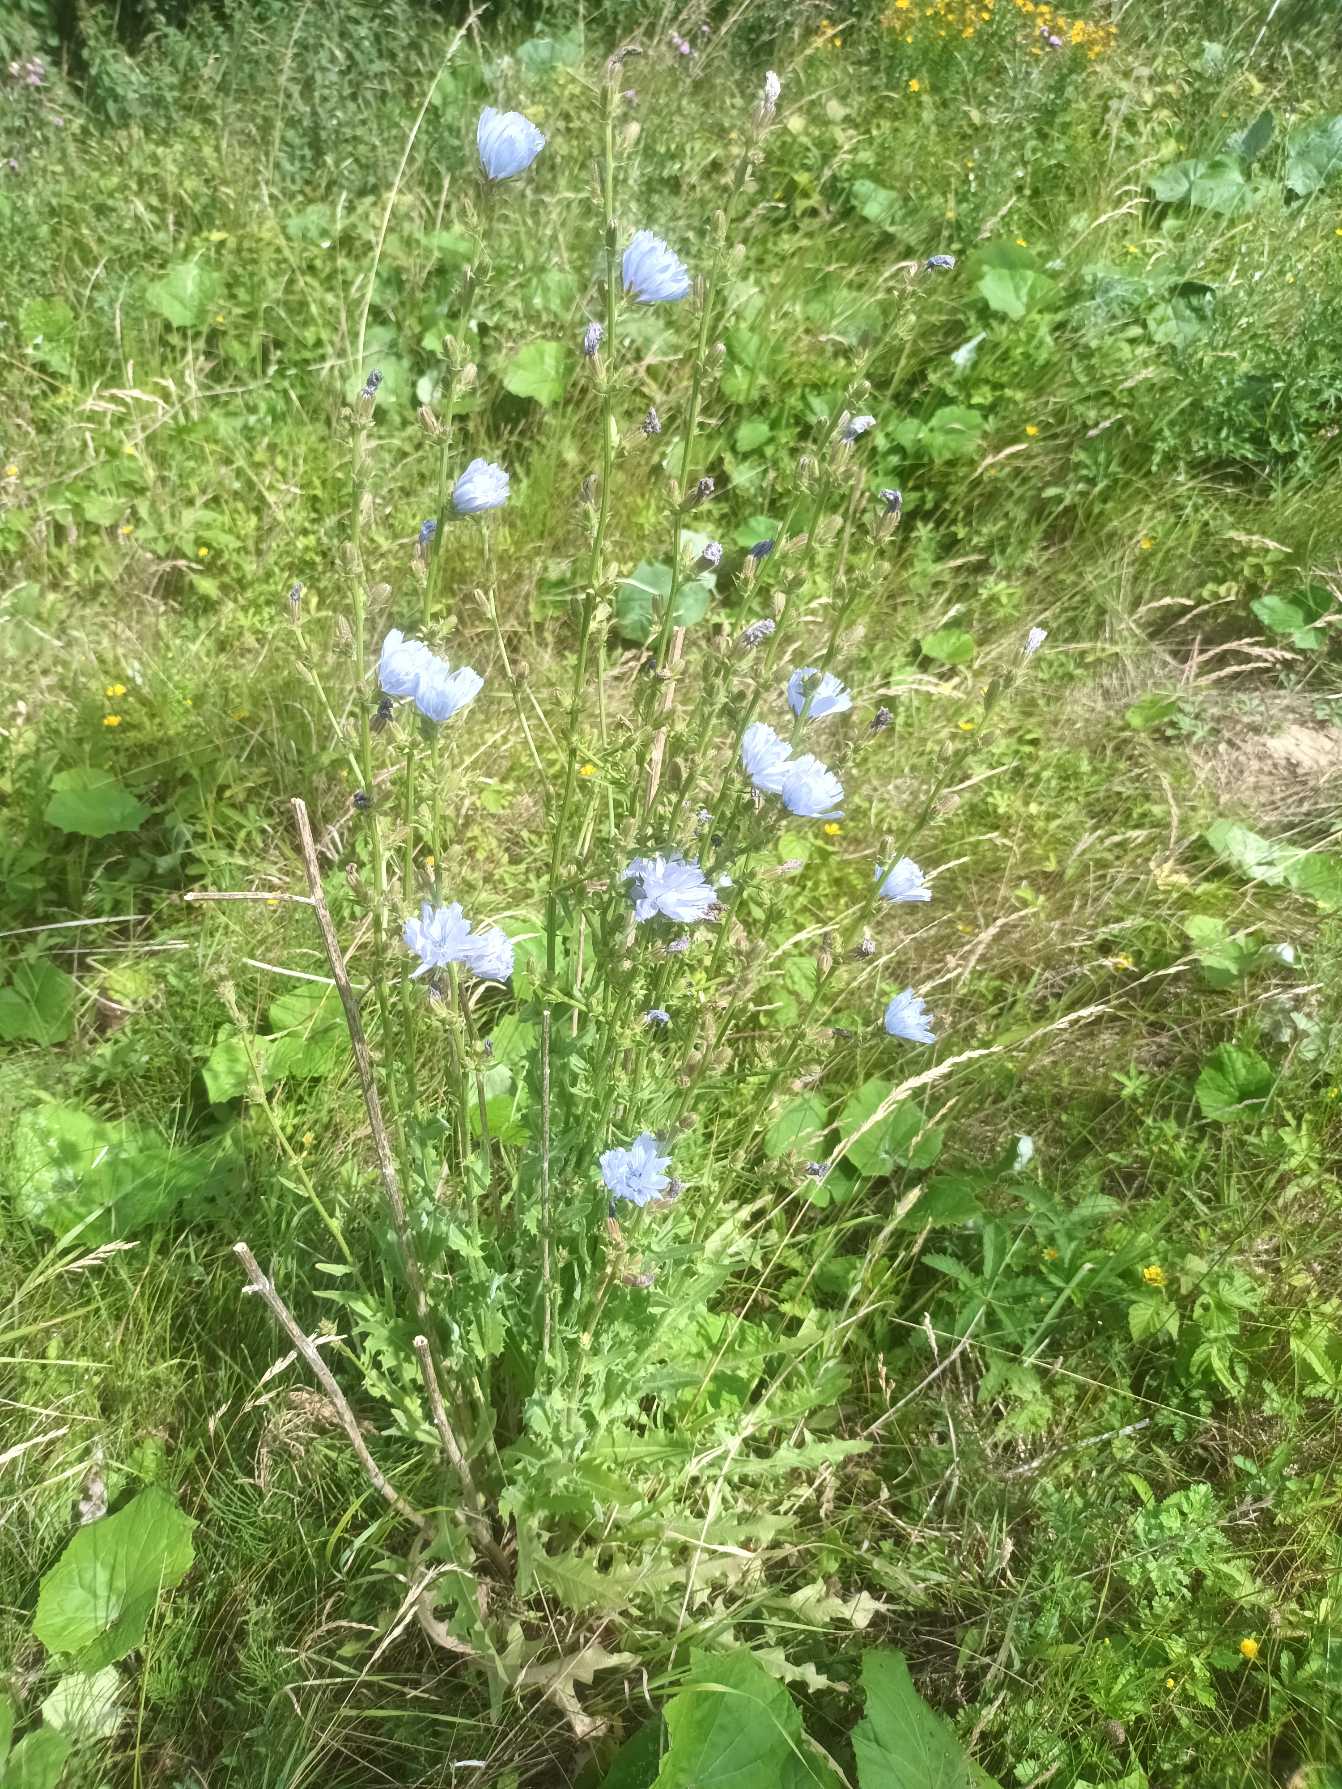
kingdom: Plantae
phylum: Tracheophyta
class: Magnoliopsida
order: Asterales
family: Asteraceae
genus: Cichorium
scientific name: Cichorium intybus
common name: Cikorie
